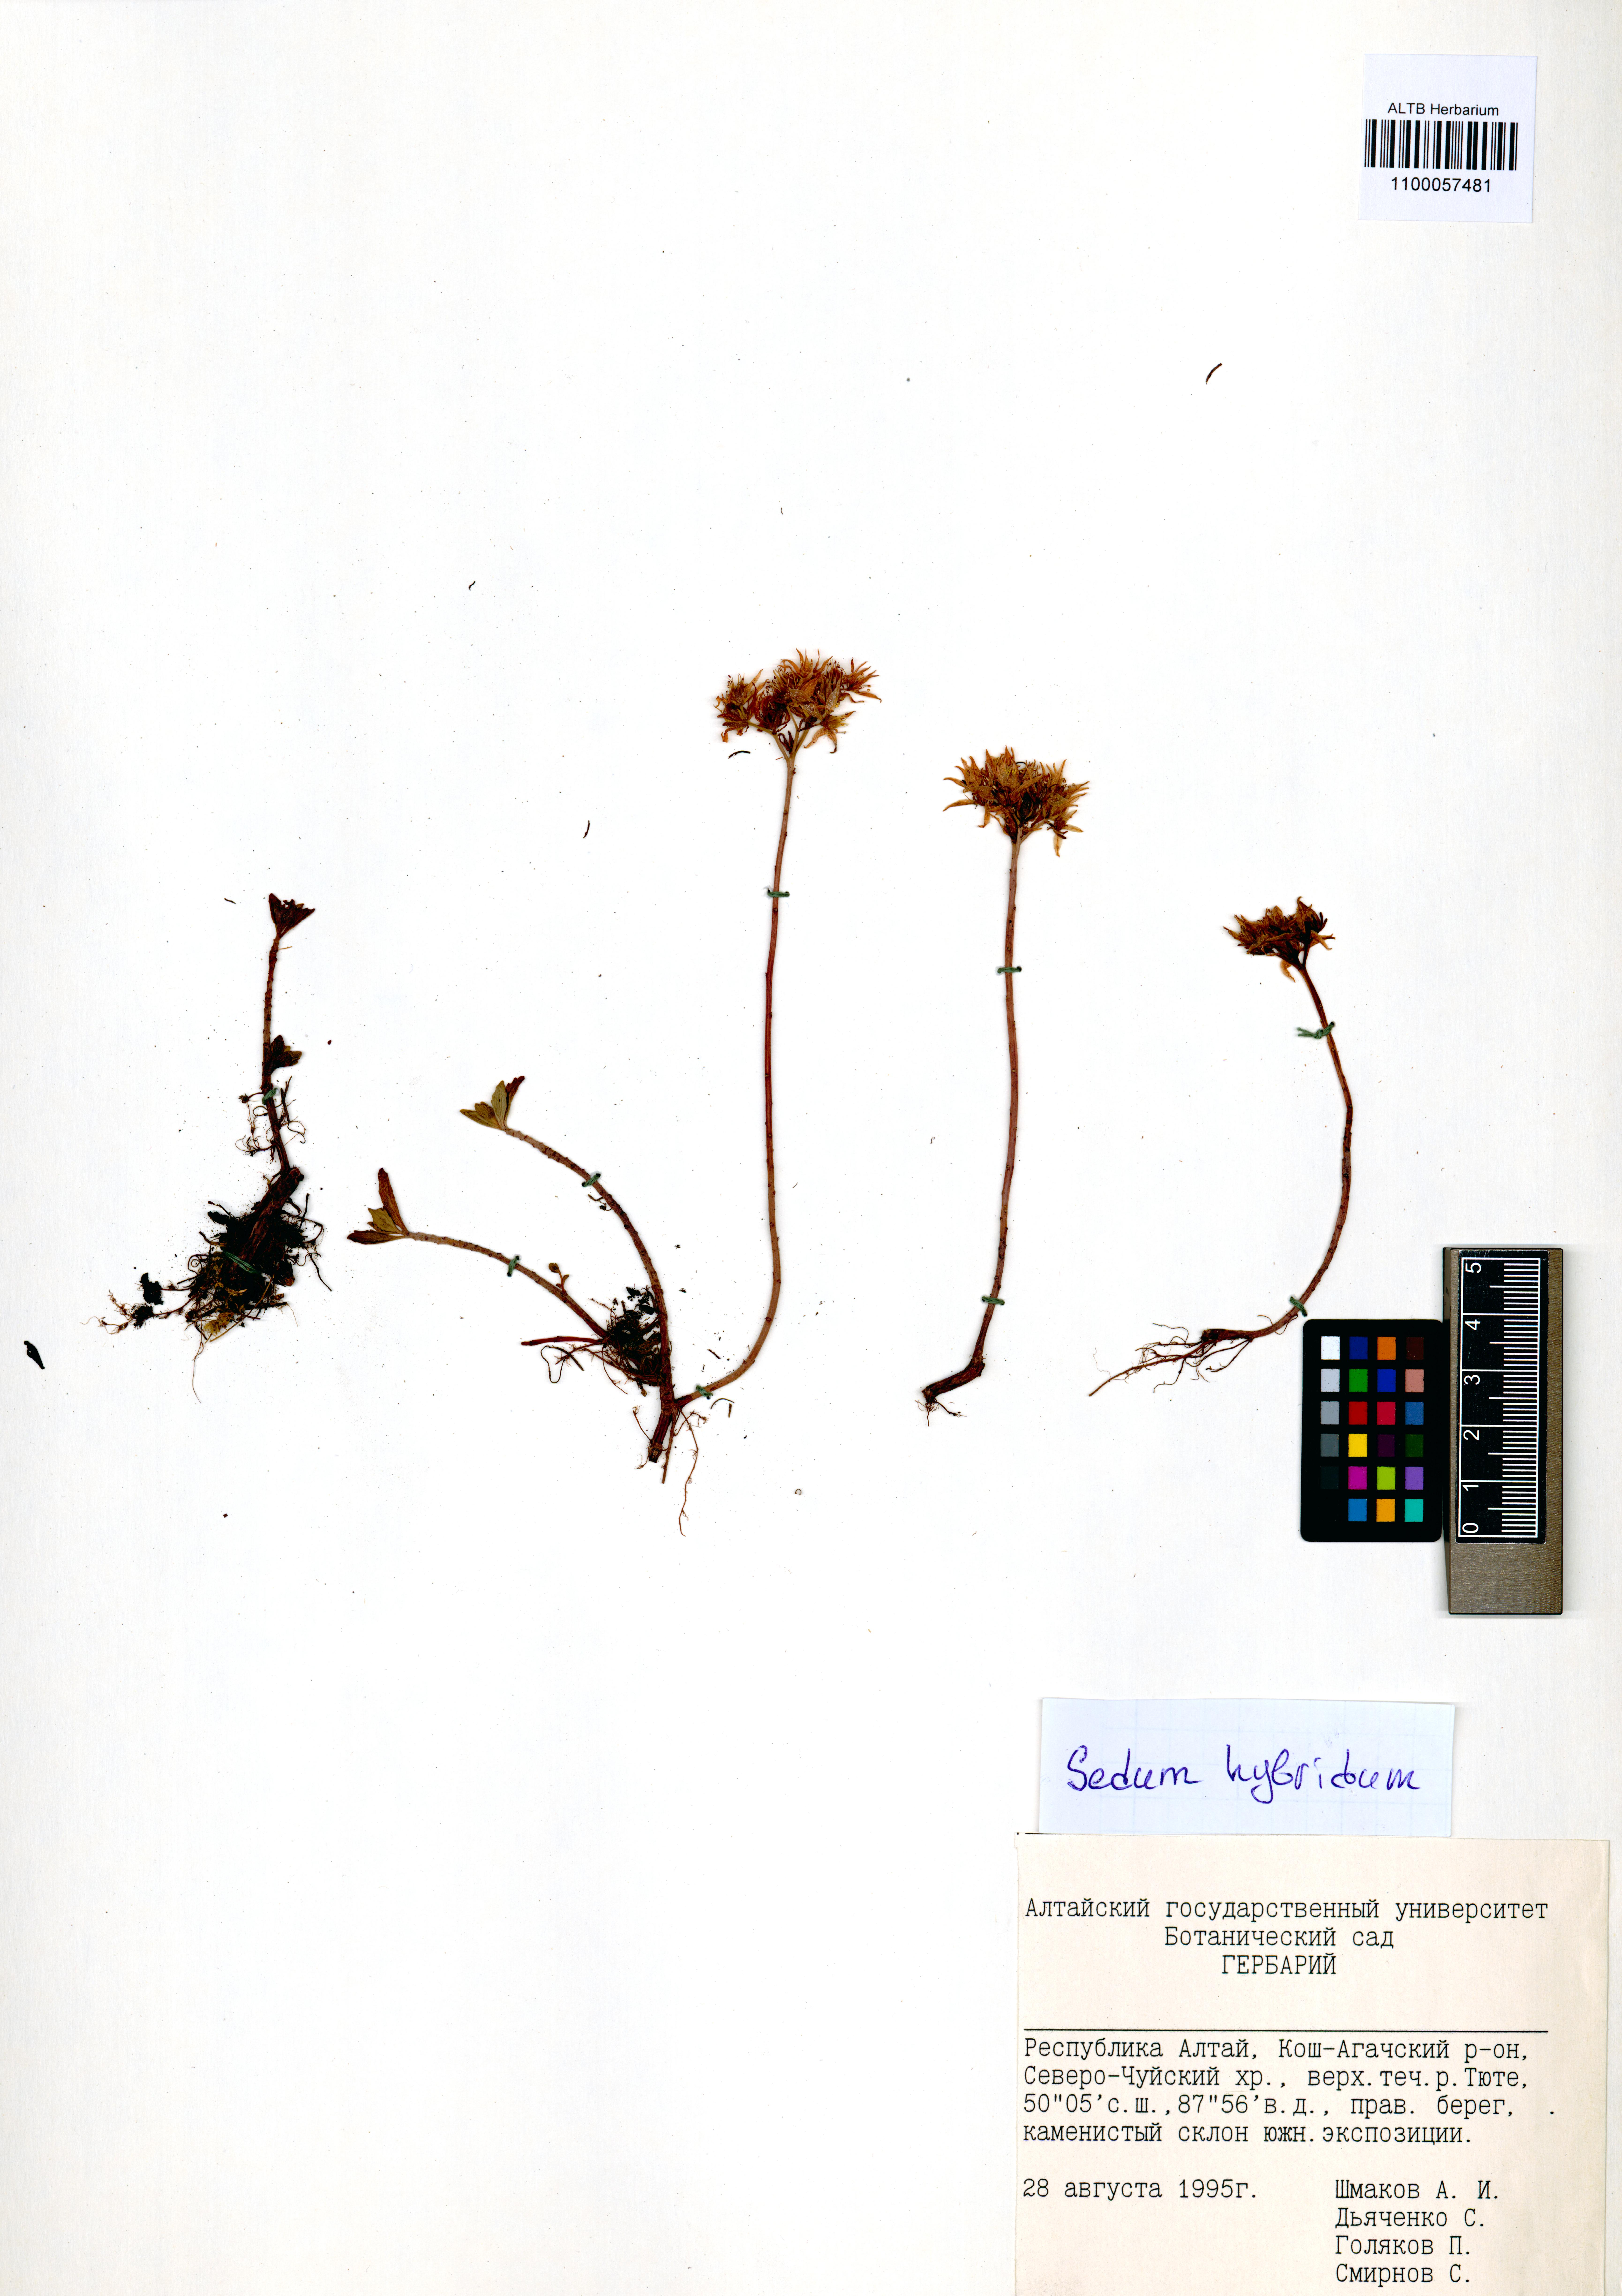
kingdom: Plantae
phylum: Tracheophyta
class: Magnoliopsida
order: Saxifragales
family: Crassulaceae
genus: Phedimus
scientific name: Phedimus hybridus
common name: Hybrid stonecrop
